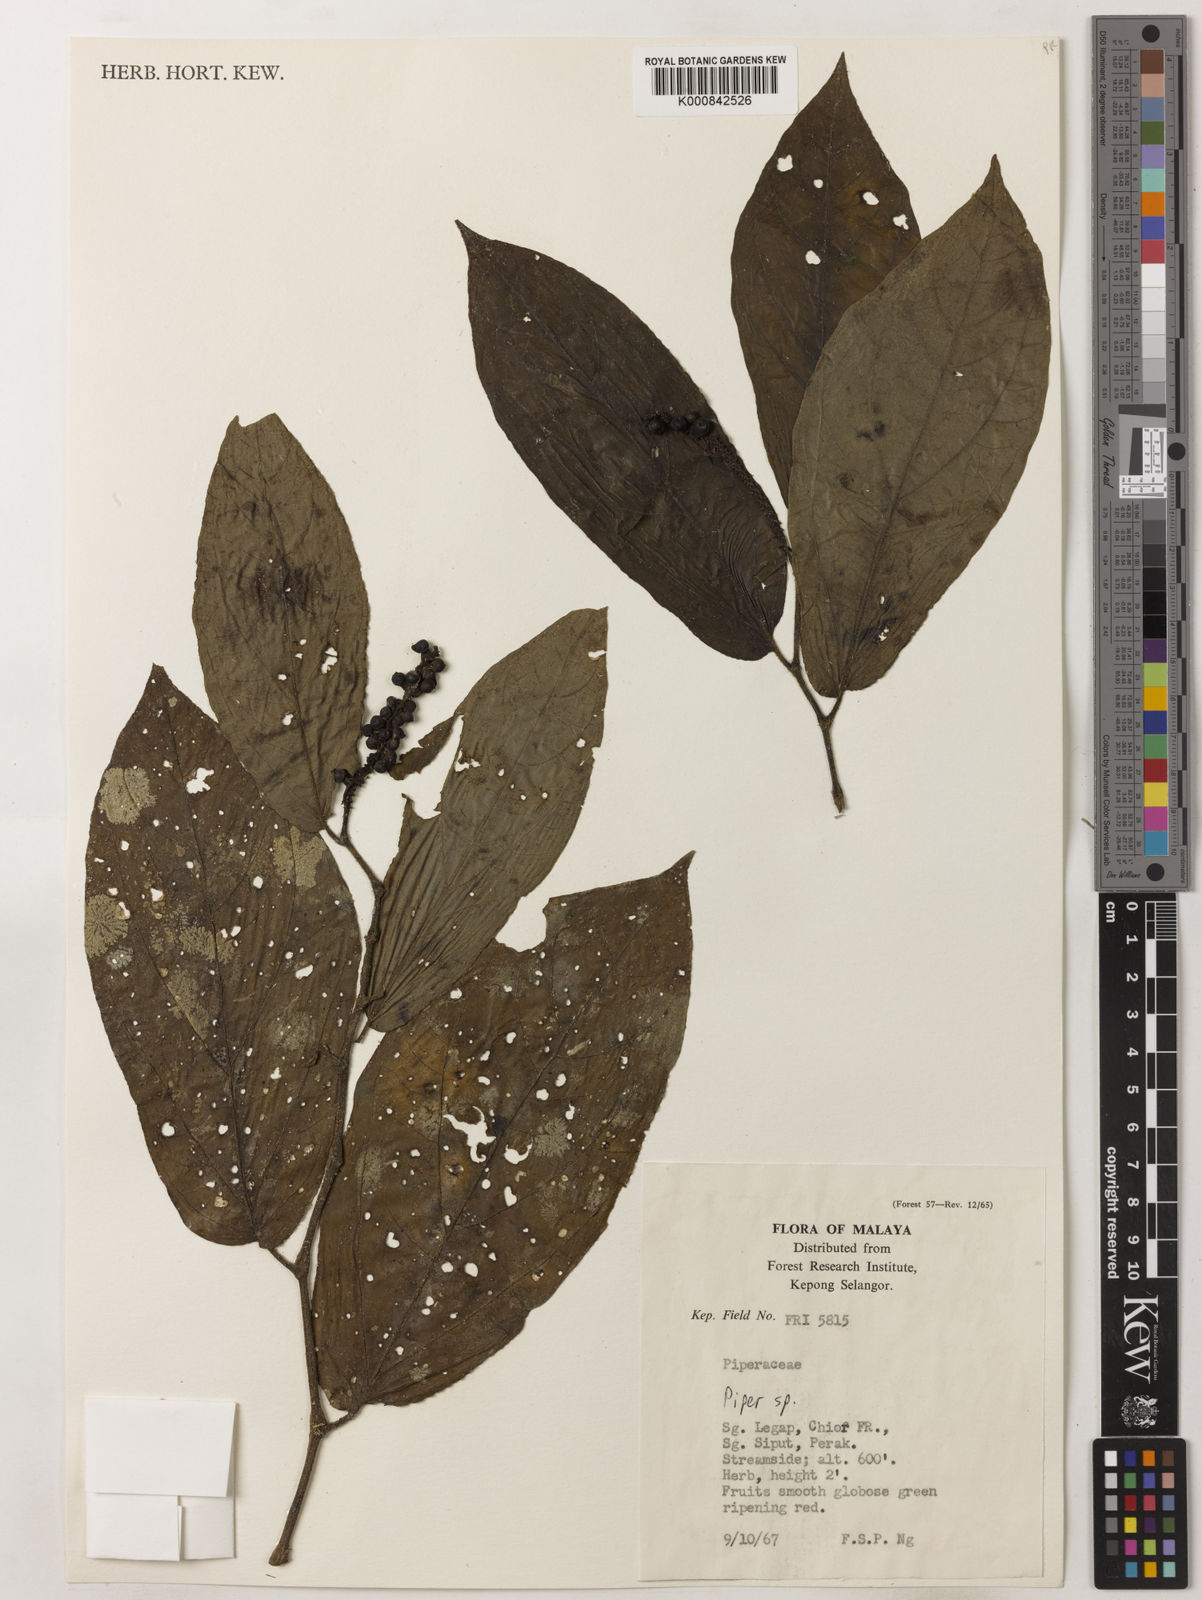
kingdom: Plantae
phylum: Tracheophyta
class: Magnoliopsida
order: Piperales
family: Piperaceae
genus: Piper
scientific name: Piper
